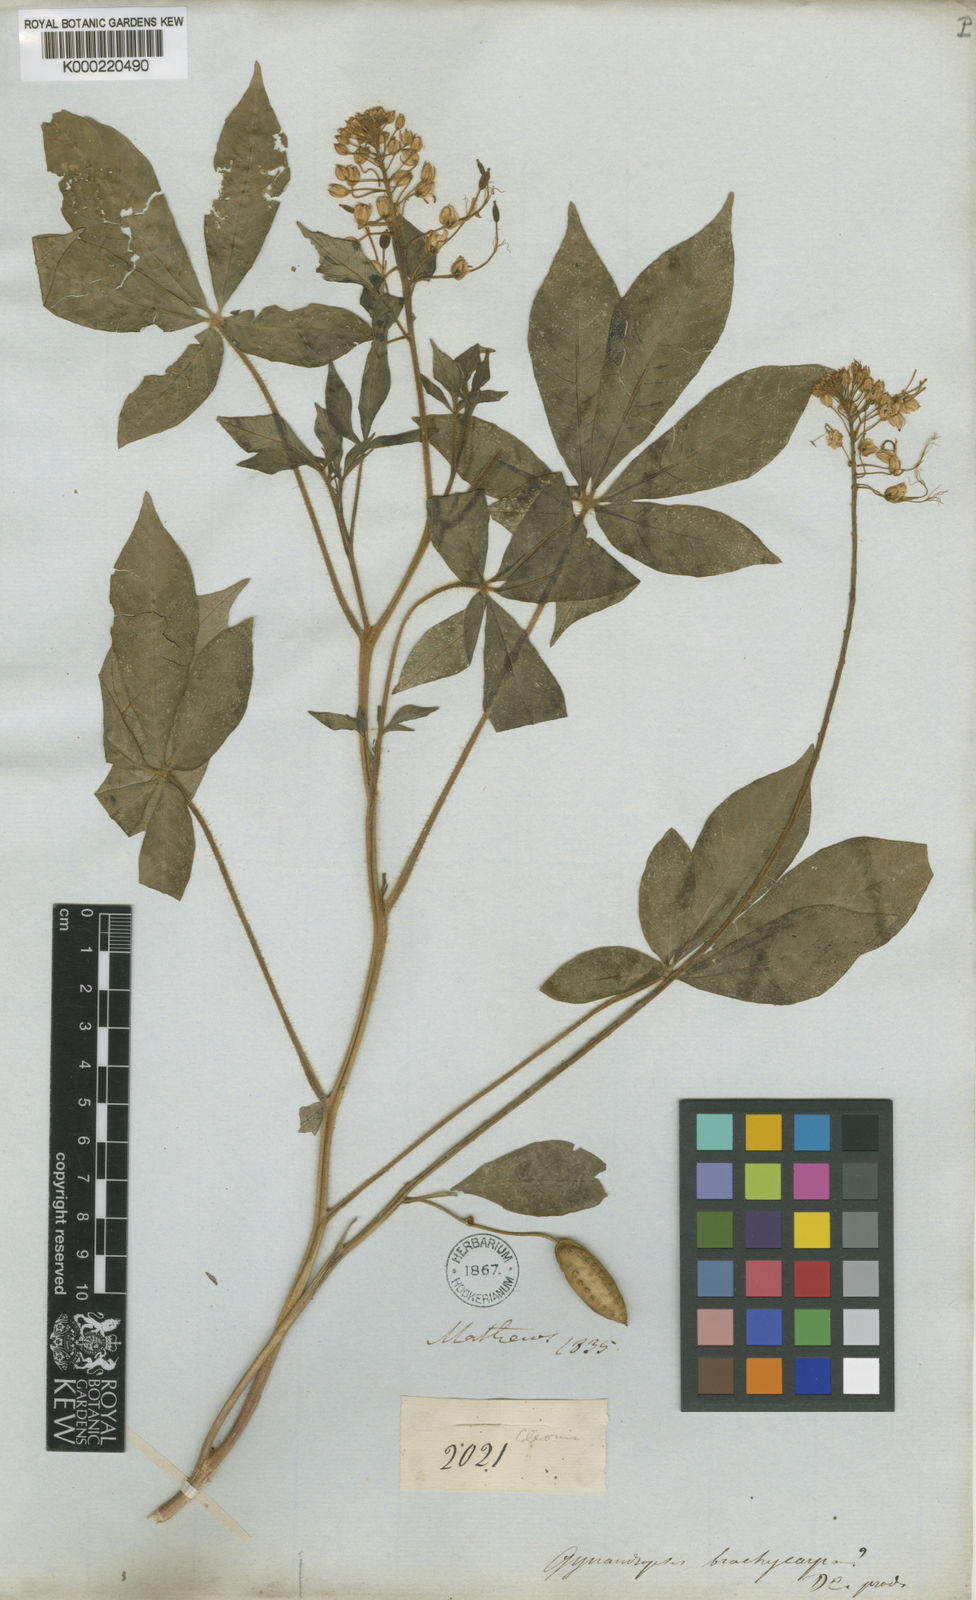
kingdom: Plantae
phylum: Tracheophyta
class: Magnoliopsida
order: Brassicales
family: Cleomaceae
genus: Podandrogyne
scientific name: Podandrogyne mathewsii
